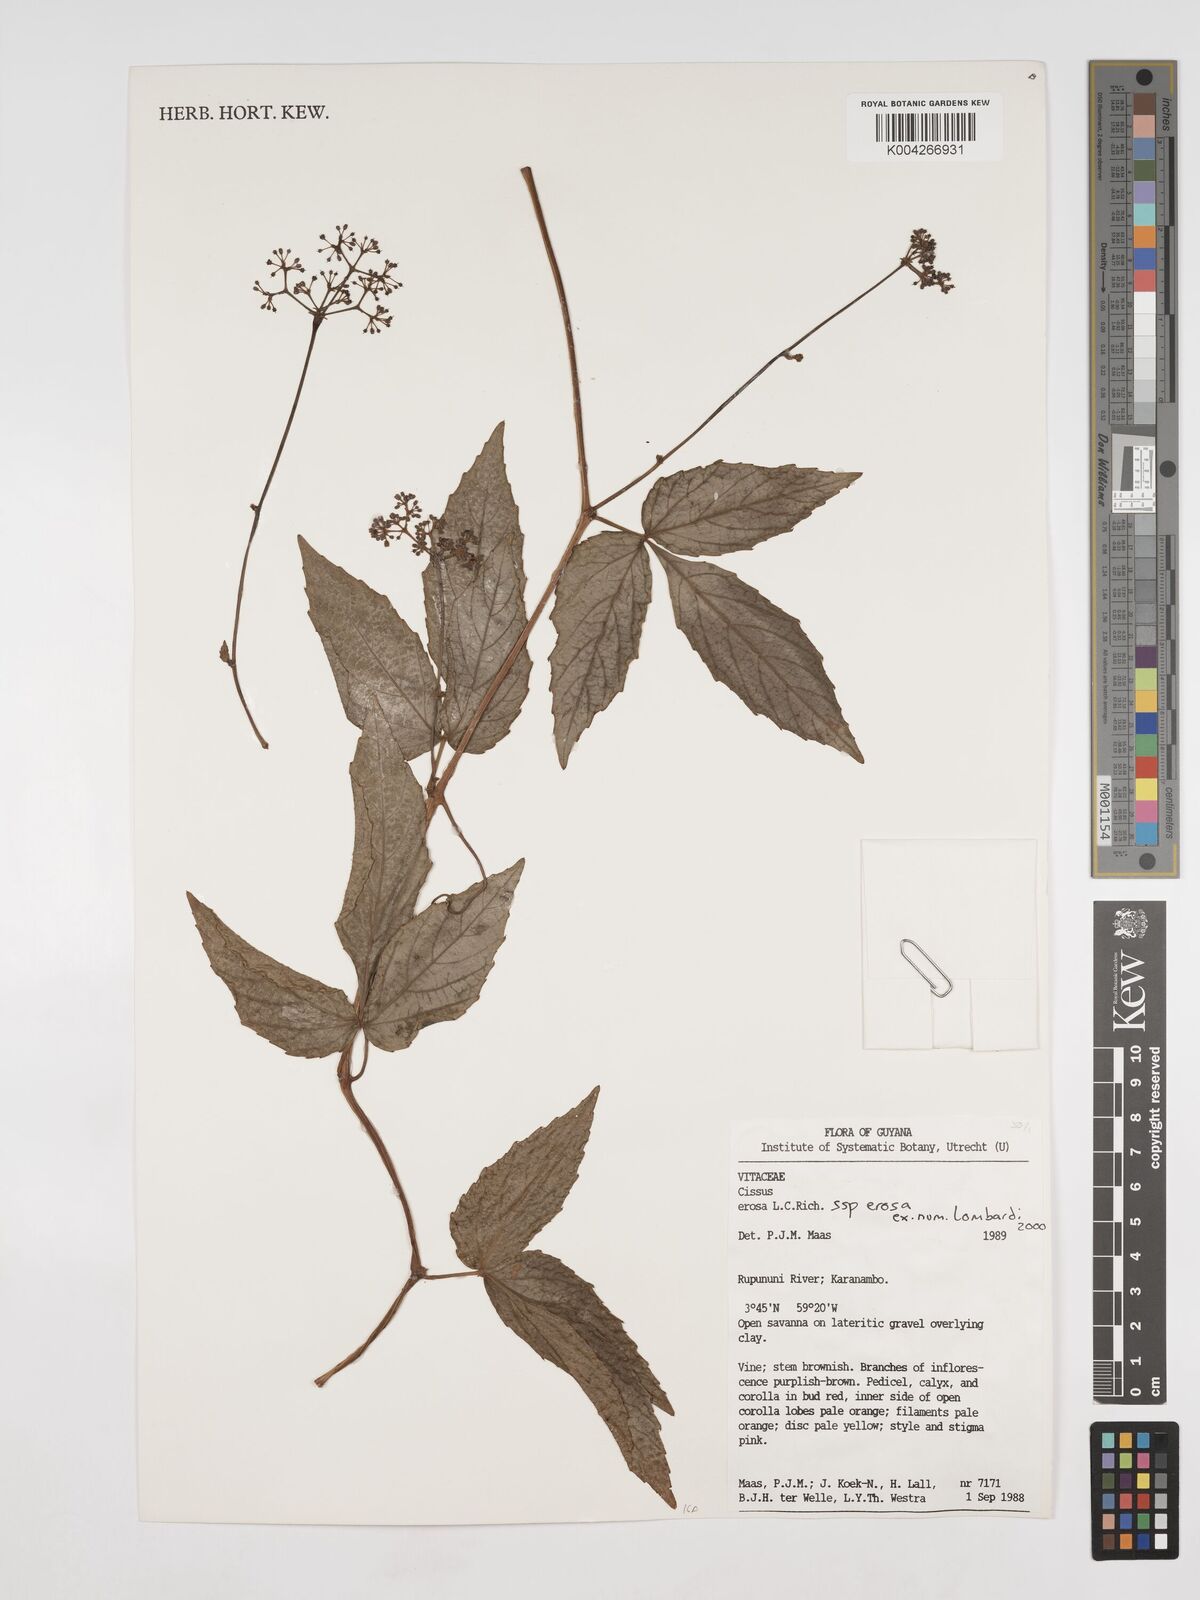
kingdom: Plantae
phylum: Tracheophyta
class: Magnoliopsida
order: Vitales
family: Vitaceae
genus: Cissus
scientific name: Cissus erosa
